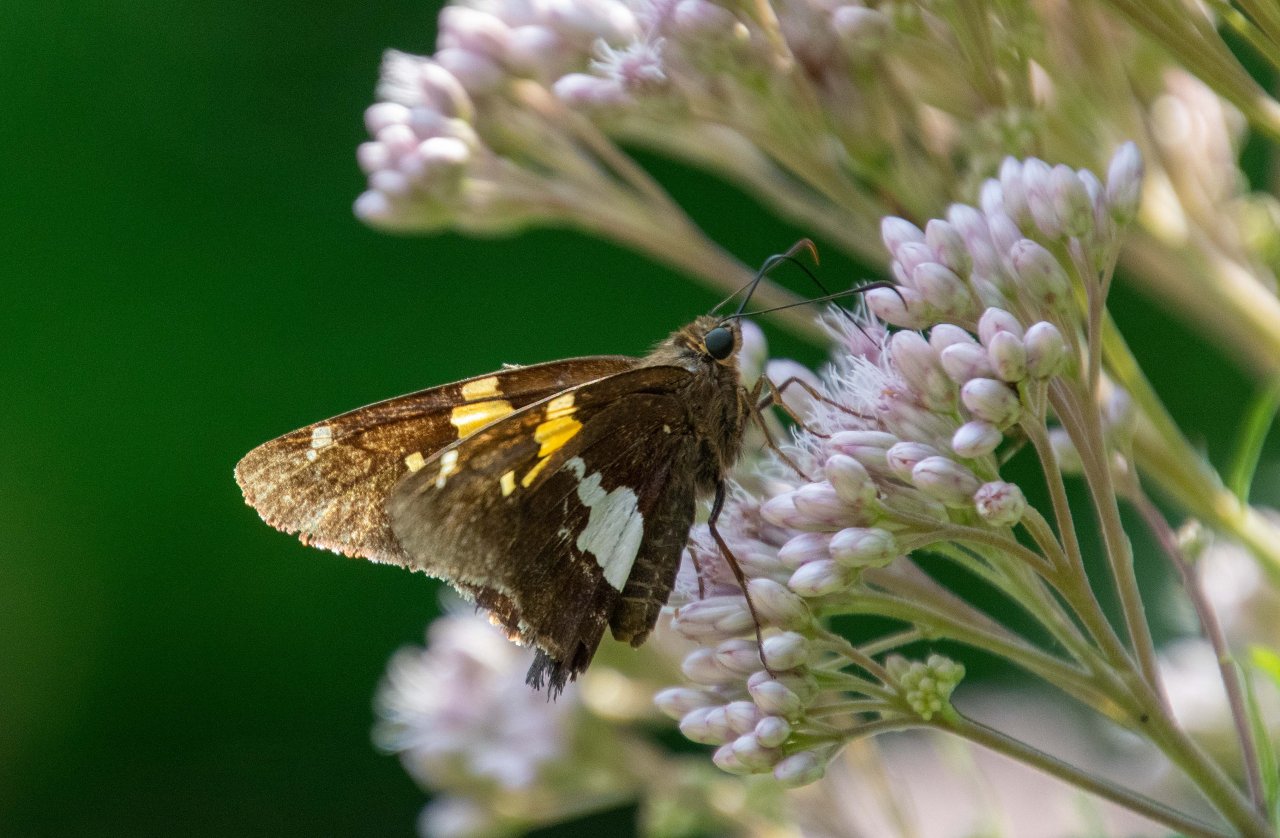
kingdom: Animalia
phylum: Arthropoda
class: Insecta
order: Lepidoptera
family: Hesperiidae
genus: Epargyreus
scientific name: Epargyreus clarus
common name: Silver-spotted Skipper
